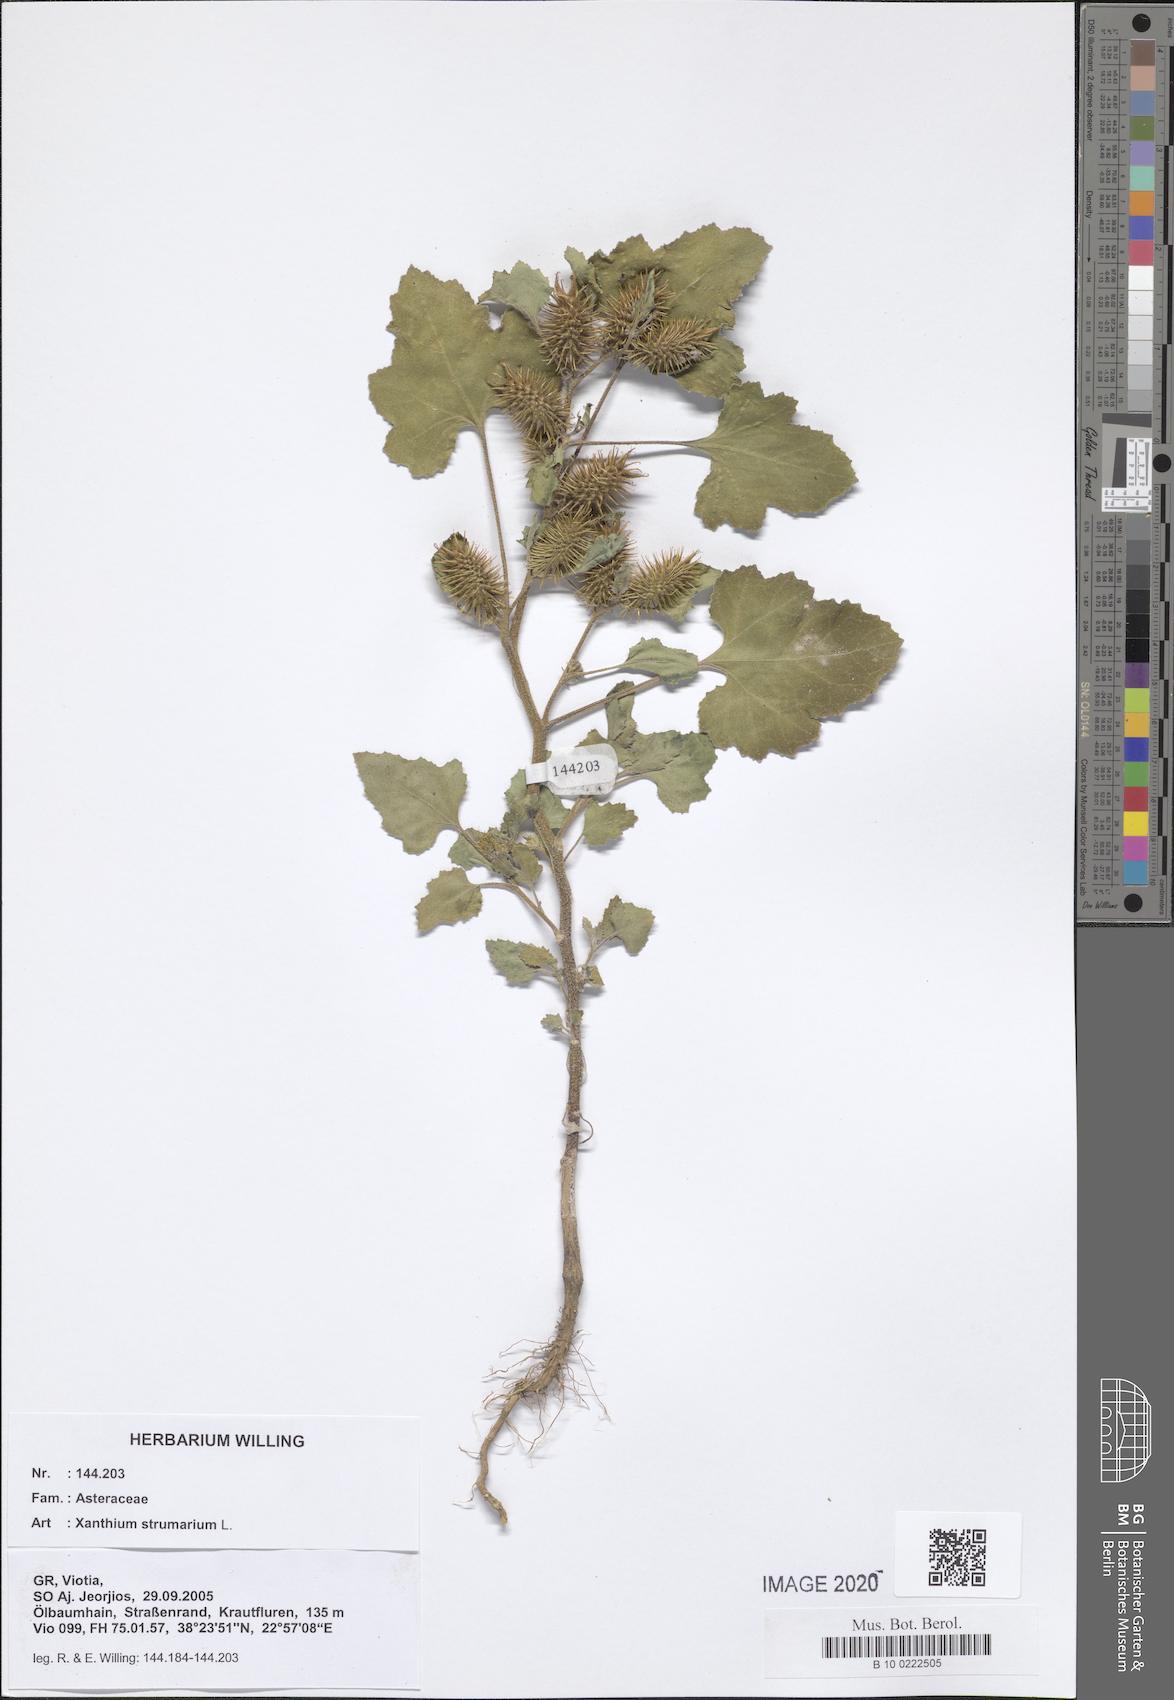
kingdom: Plantae
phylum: Tracheophyta
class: Magnoliopsida
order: Asterales
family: Asteraceae
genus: Xanthium
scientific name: Xanthium strumarium
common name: Rough cocklebur
